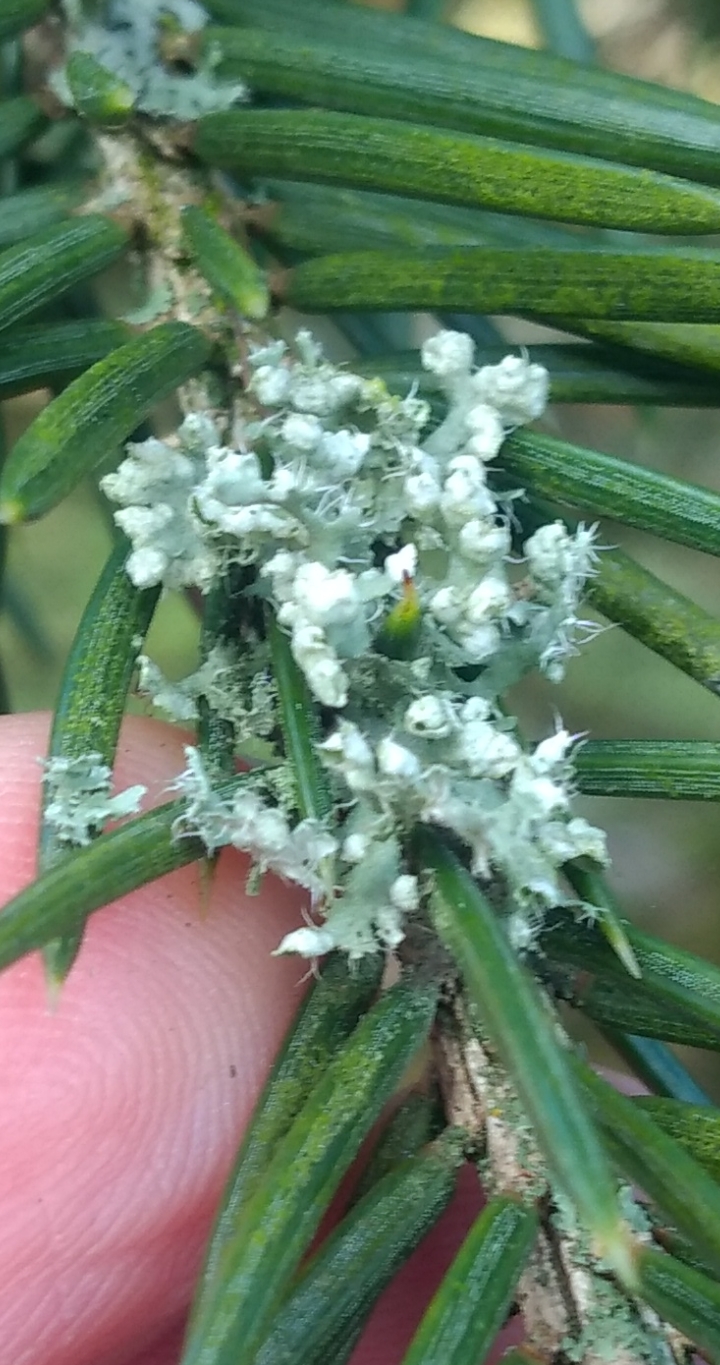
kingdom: Fungi
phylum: Ascomycota
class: Lecanoromycetes
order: Caliciales
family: Physciaceae
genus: Physcia
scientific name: Physcia adscendens
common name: hætte-rosetlav
